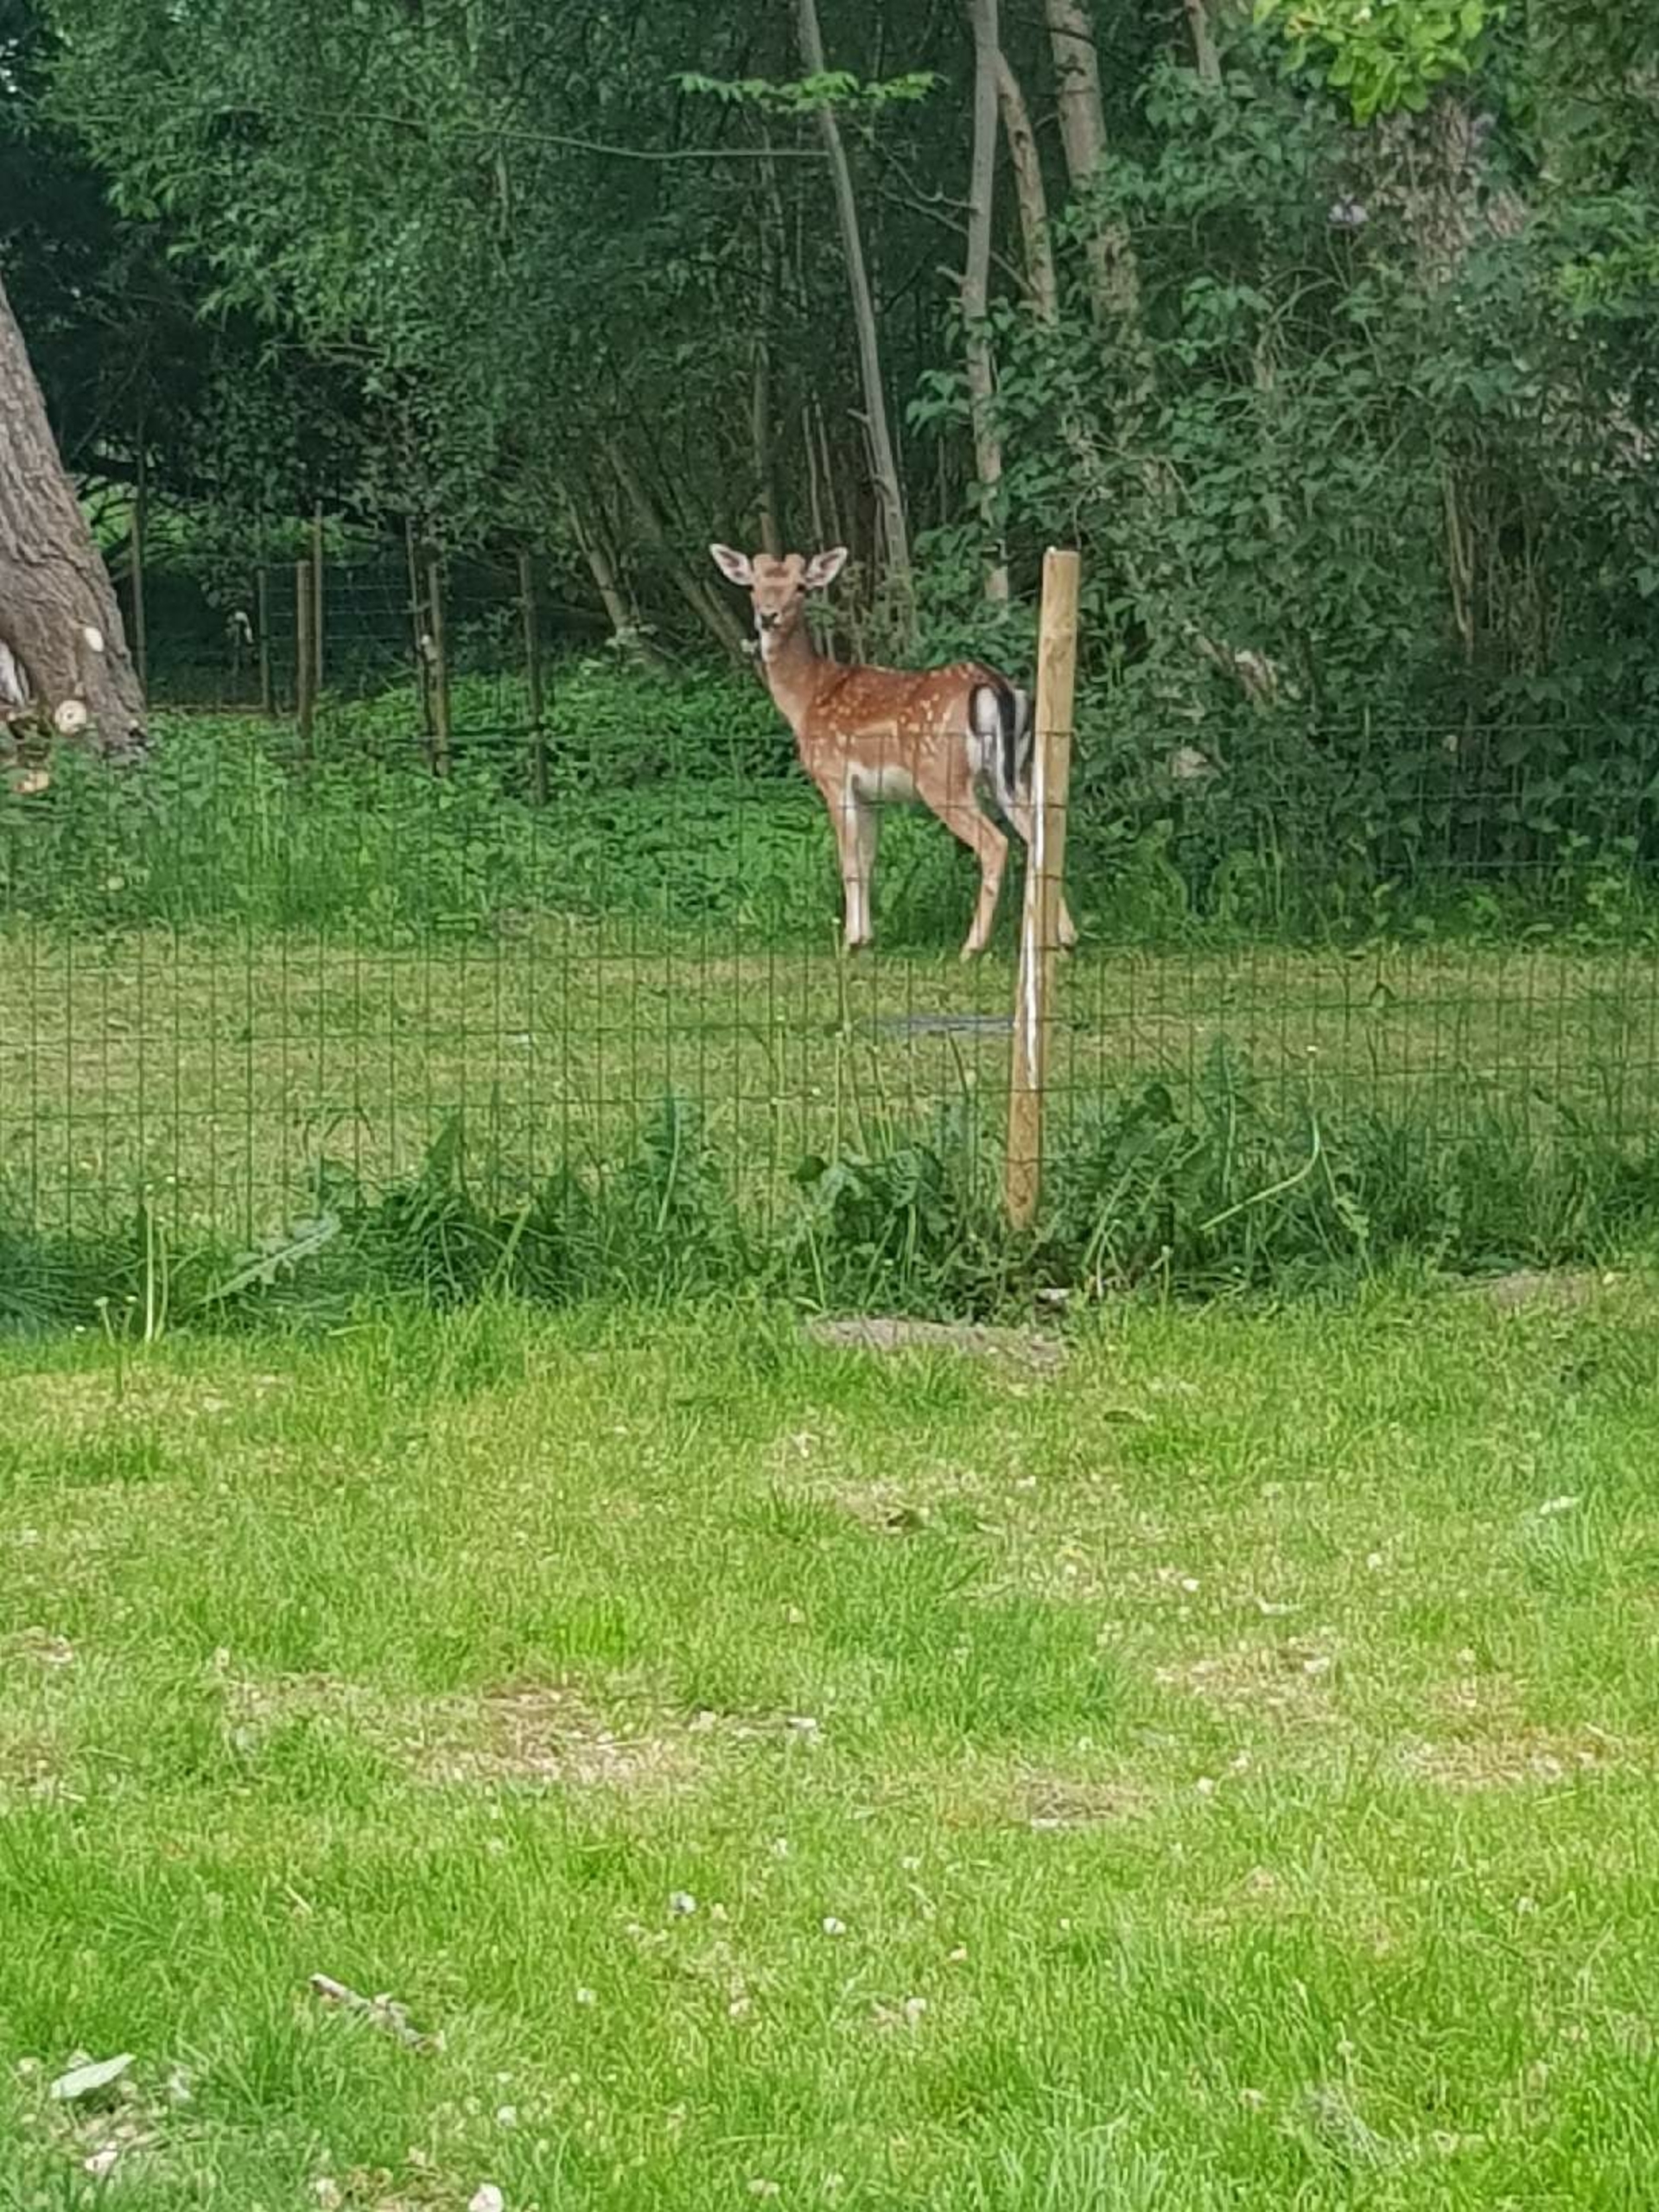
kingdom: Animalia
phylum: Chordata
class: Mammalia
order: Artiodactyla
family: Cervidae
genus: Dama
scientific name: Dama dama
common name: Dådyr
